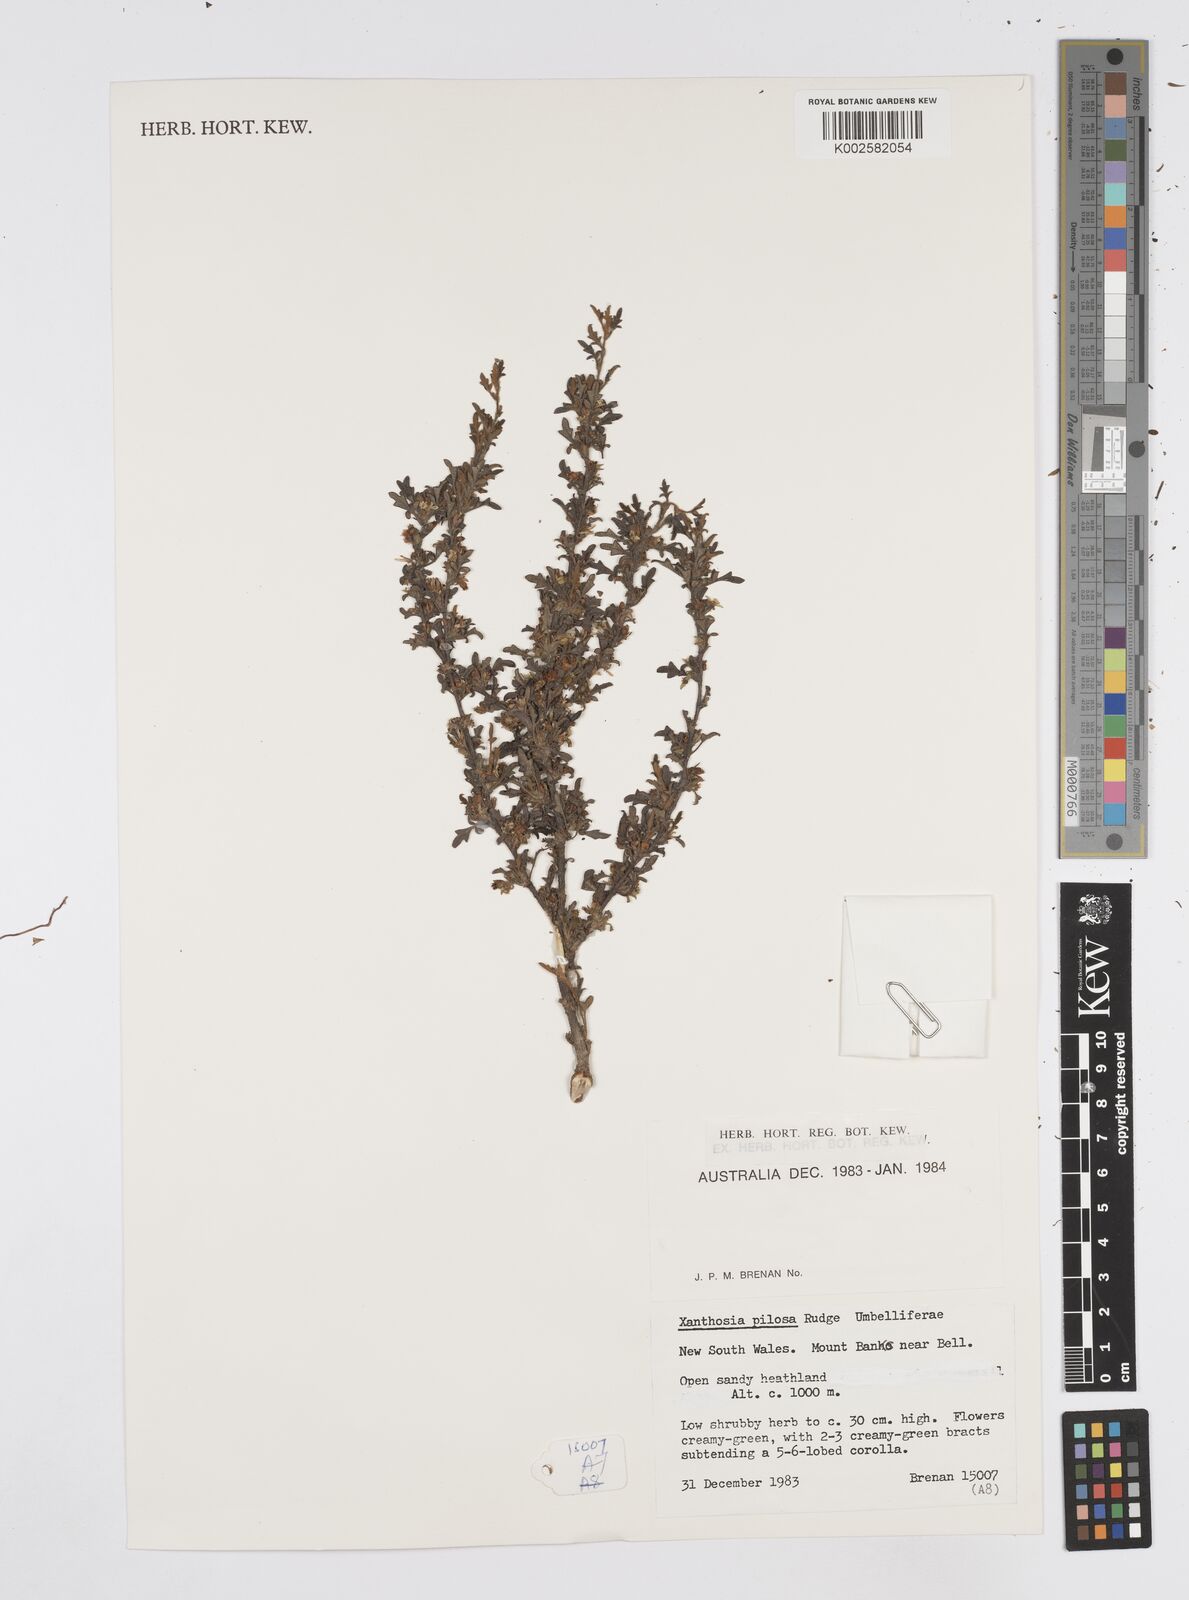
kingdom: Plantae
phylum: Tracheophyta
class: Magnoliopsida
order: Apiales
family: Apiaceae
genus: Xanthosia
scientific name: Xanthosia pilosa
